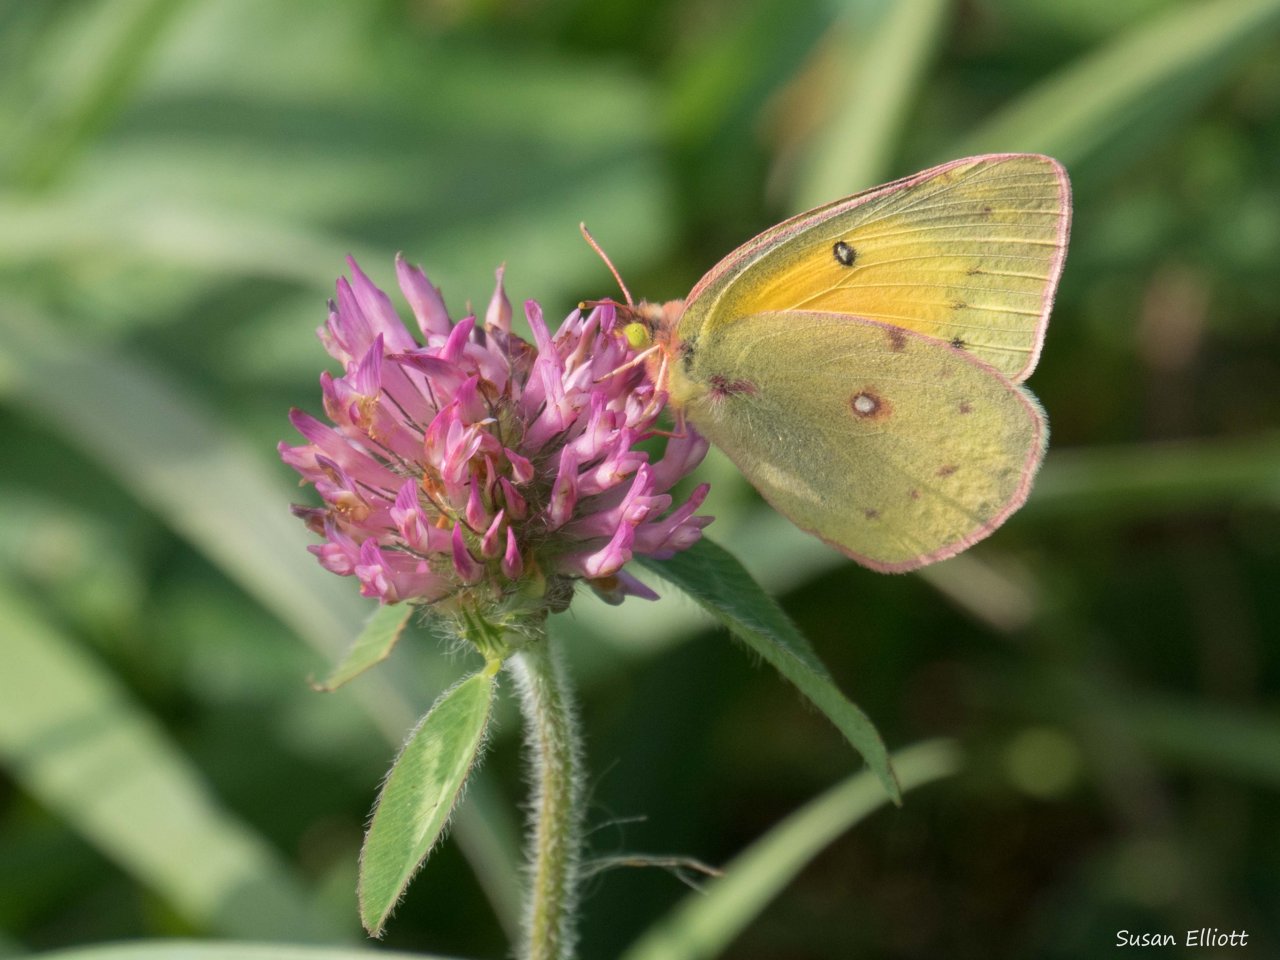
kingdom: Animalia
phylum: Arthropoda
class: Insecta
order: Lepidoptera
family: Pieridae
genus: Colias
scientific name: Colias eurytheme
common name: Orange Sulphur
